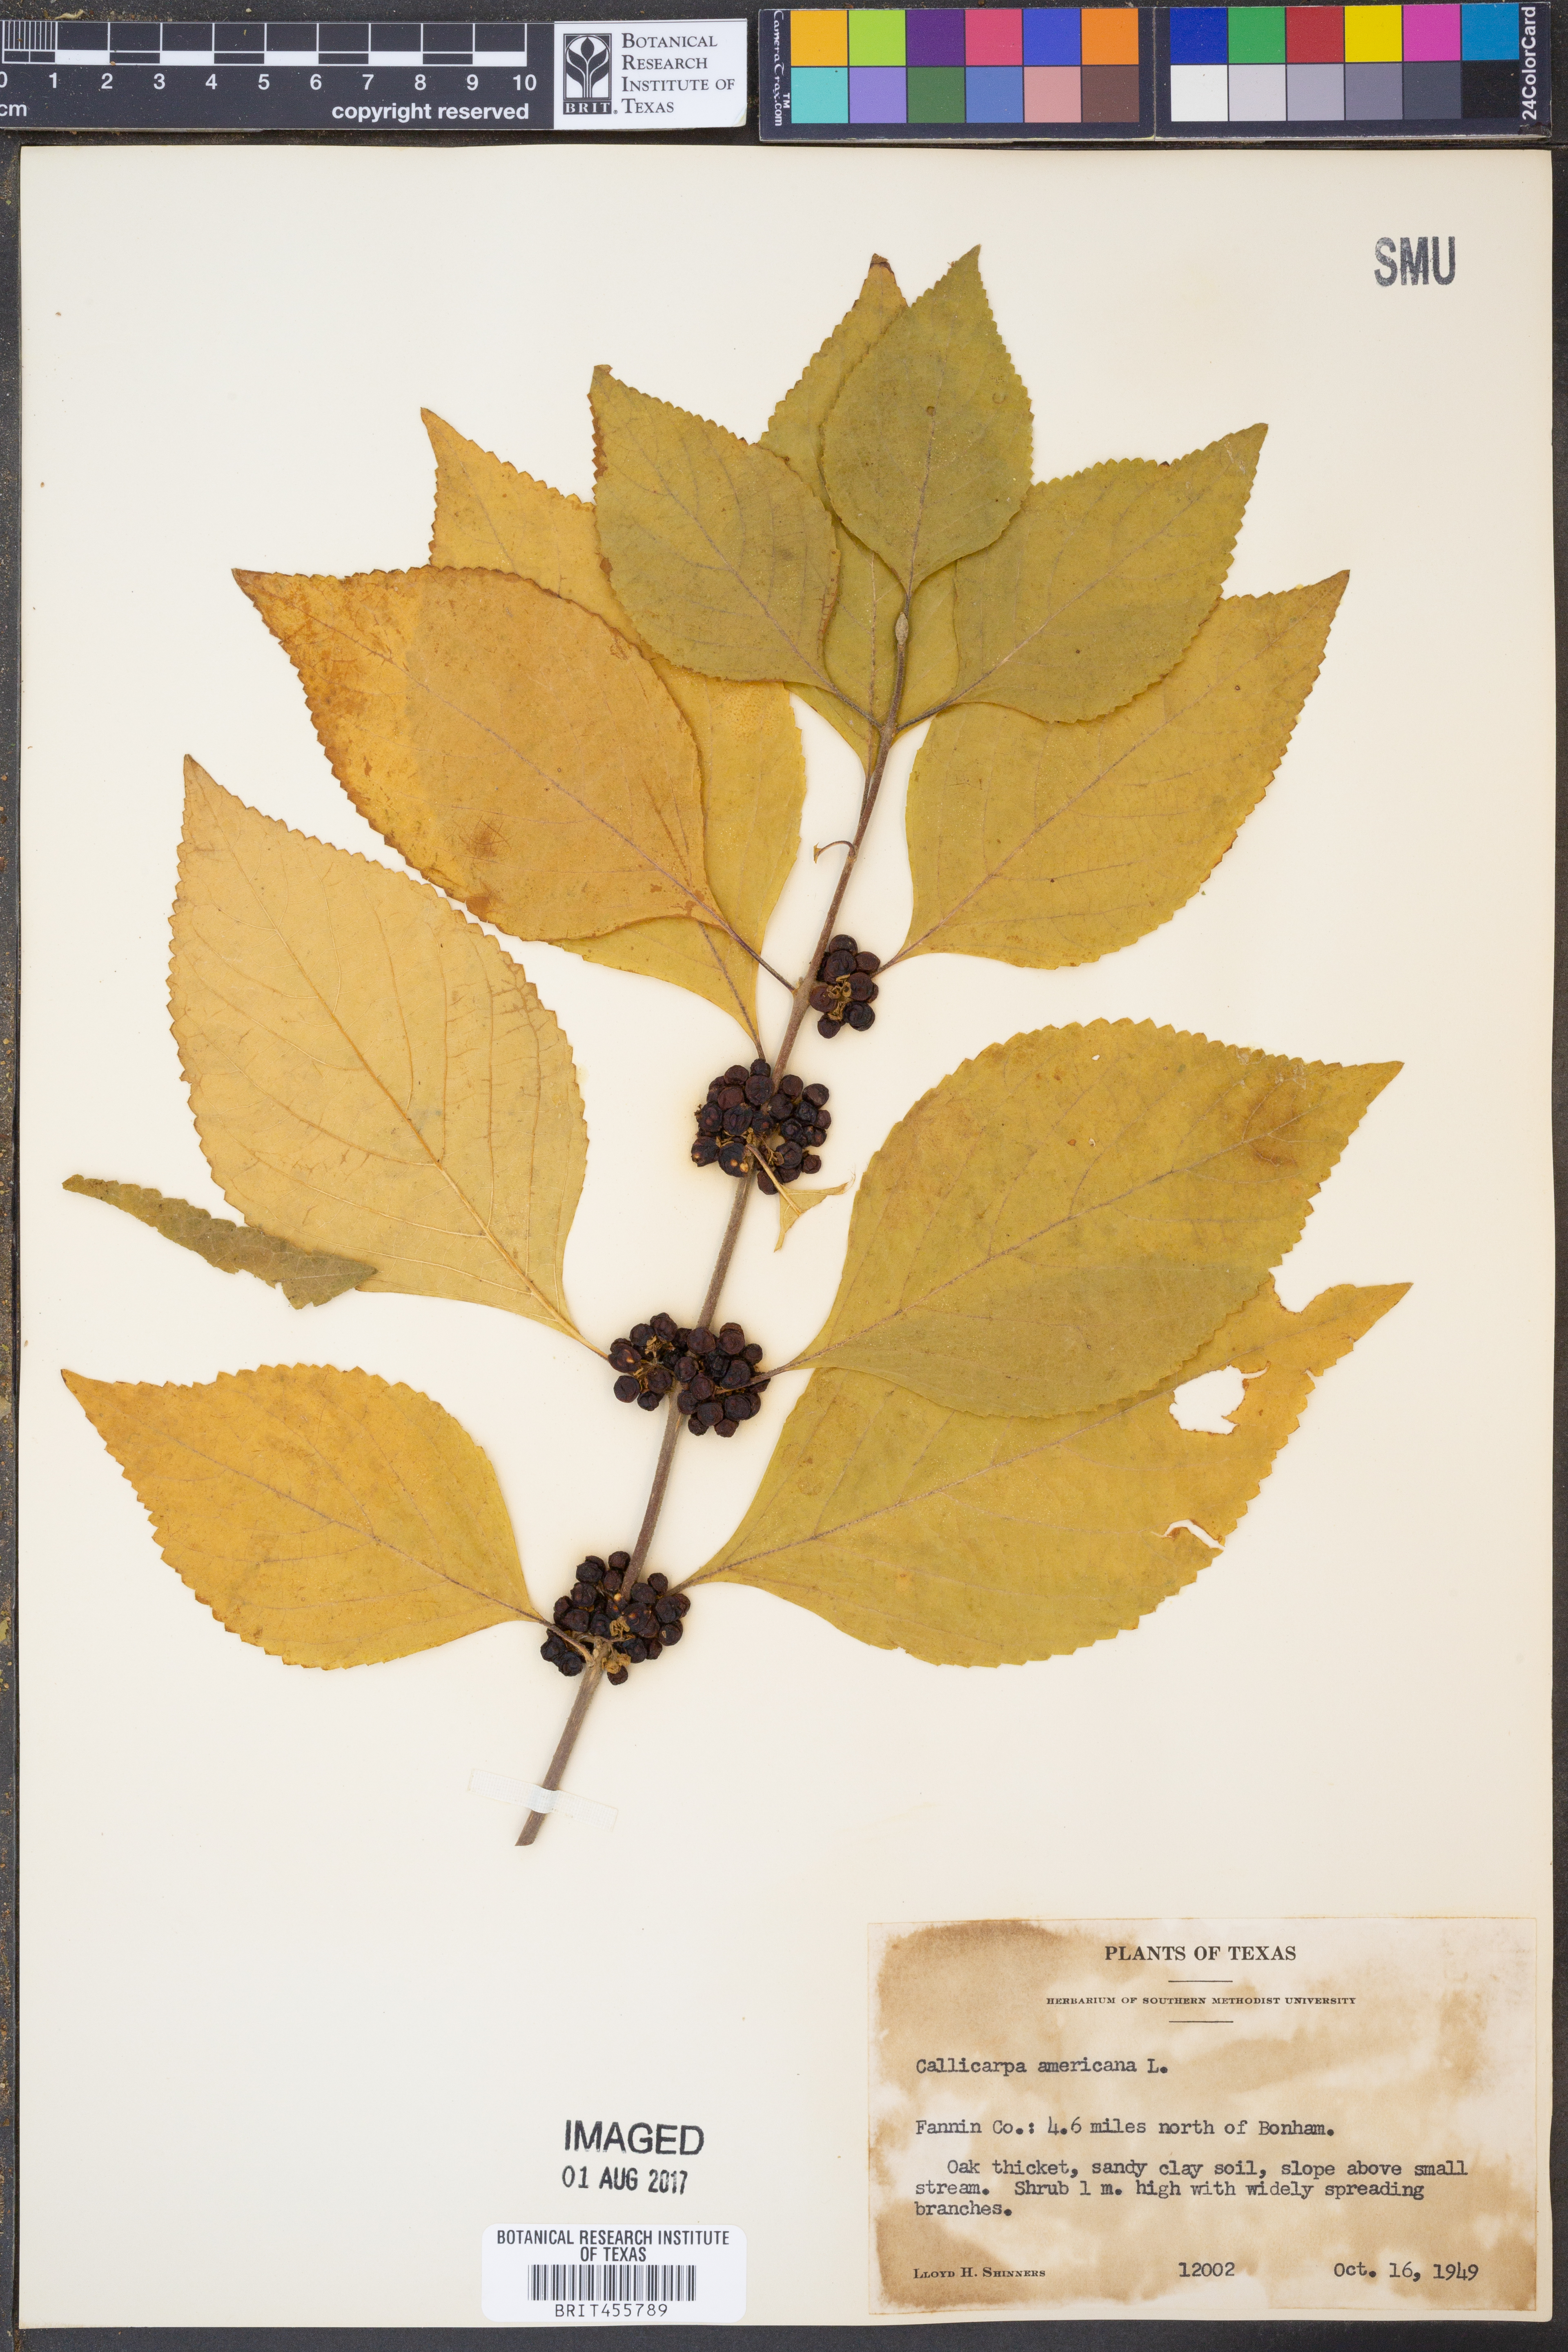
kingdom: Plantae
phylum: Tracheophyta
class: Magnoliopsida
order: Lamiales
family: Lamiaceae
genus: Callicarpa
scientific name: Callicarpa americana
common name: American beautyberry
